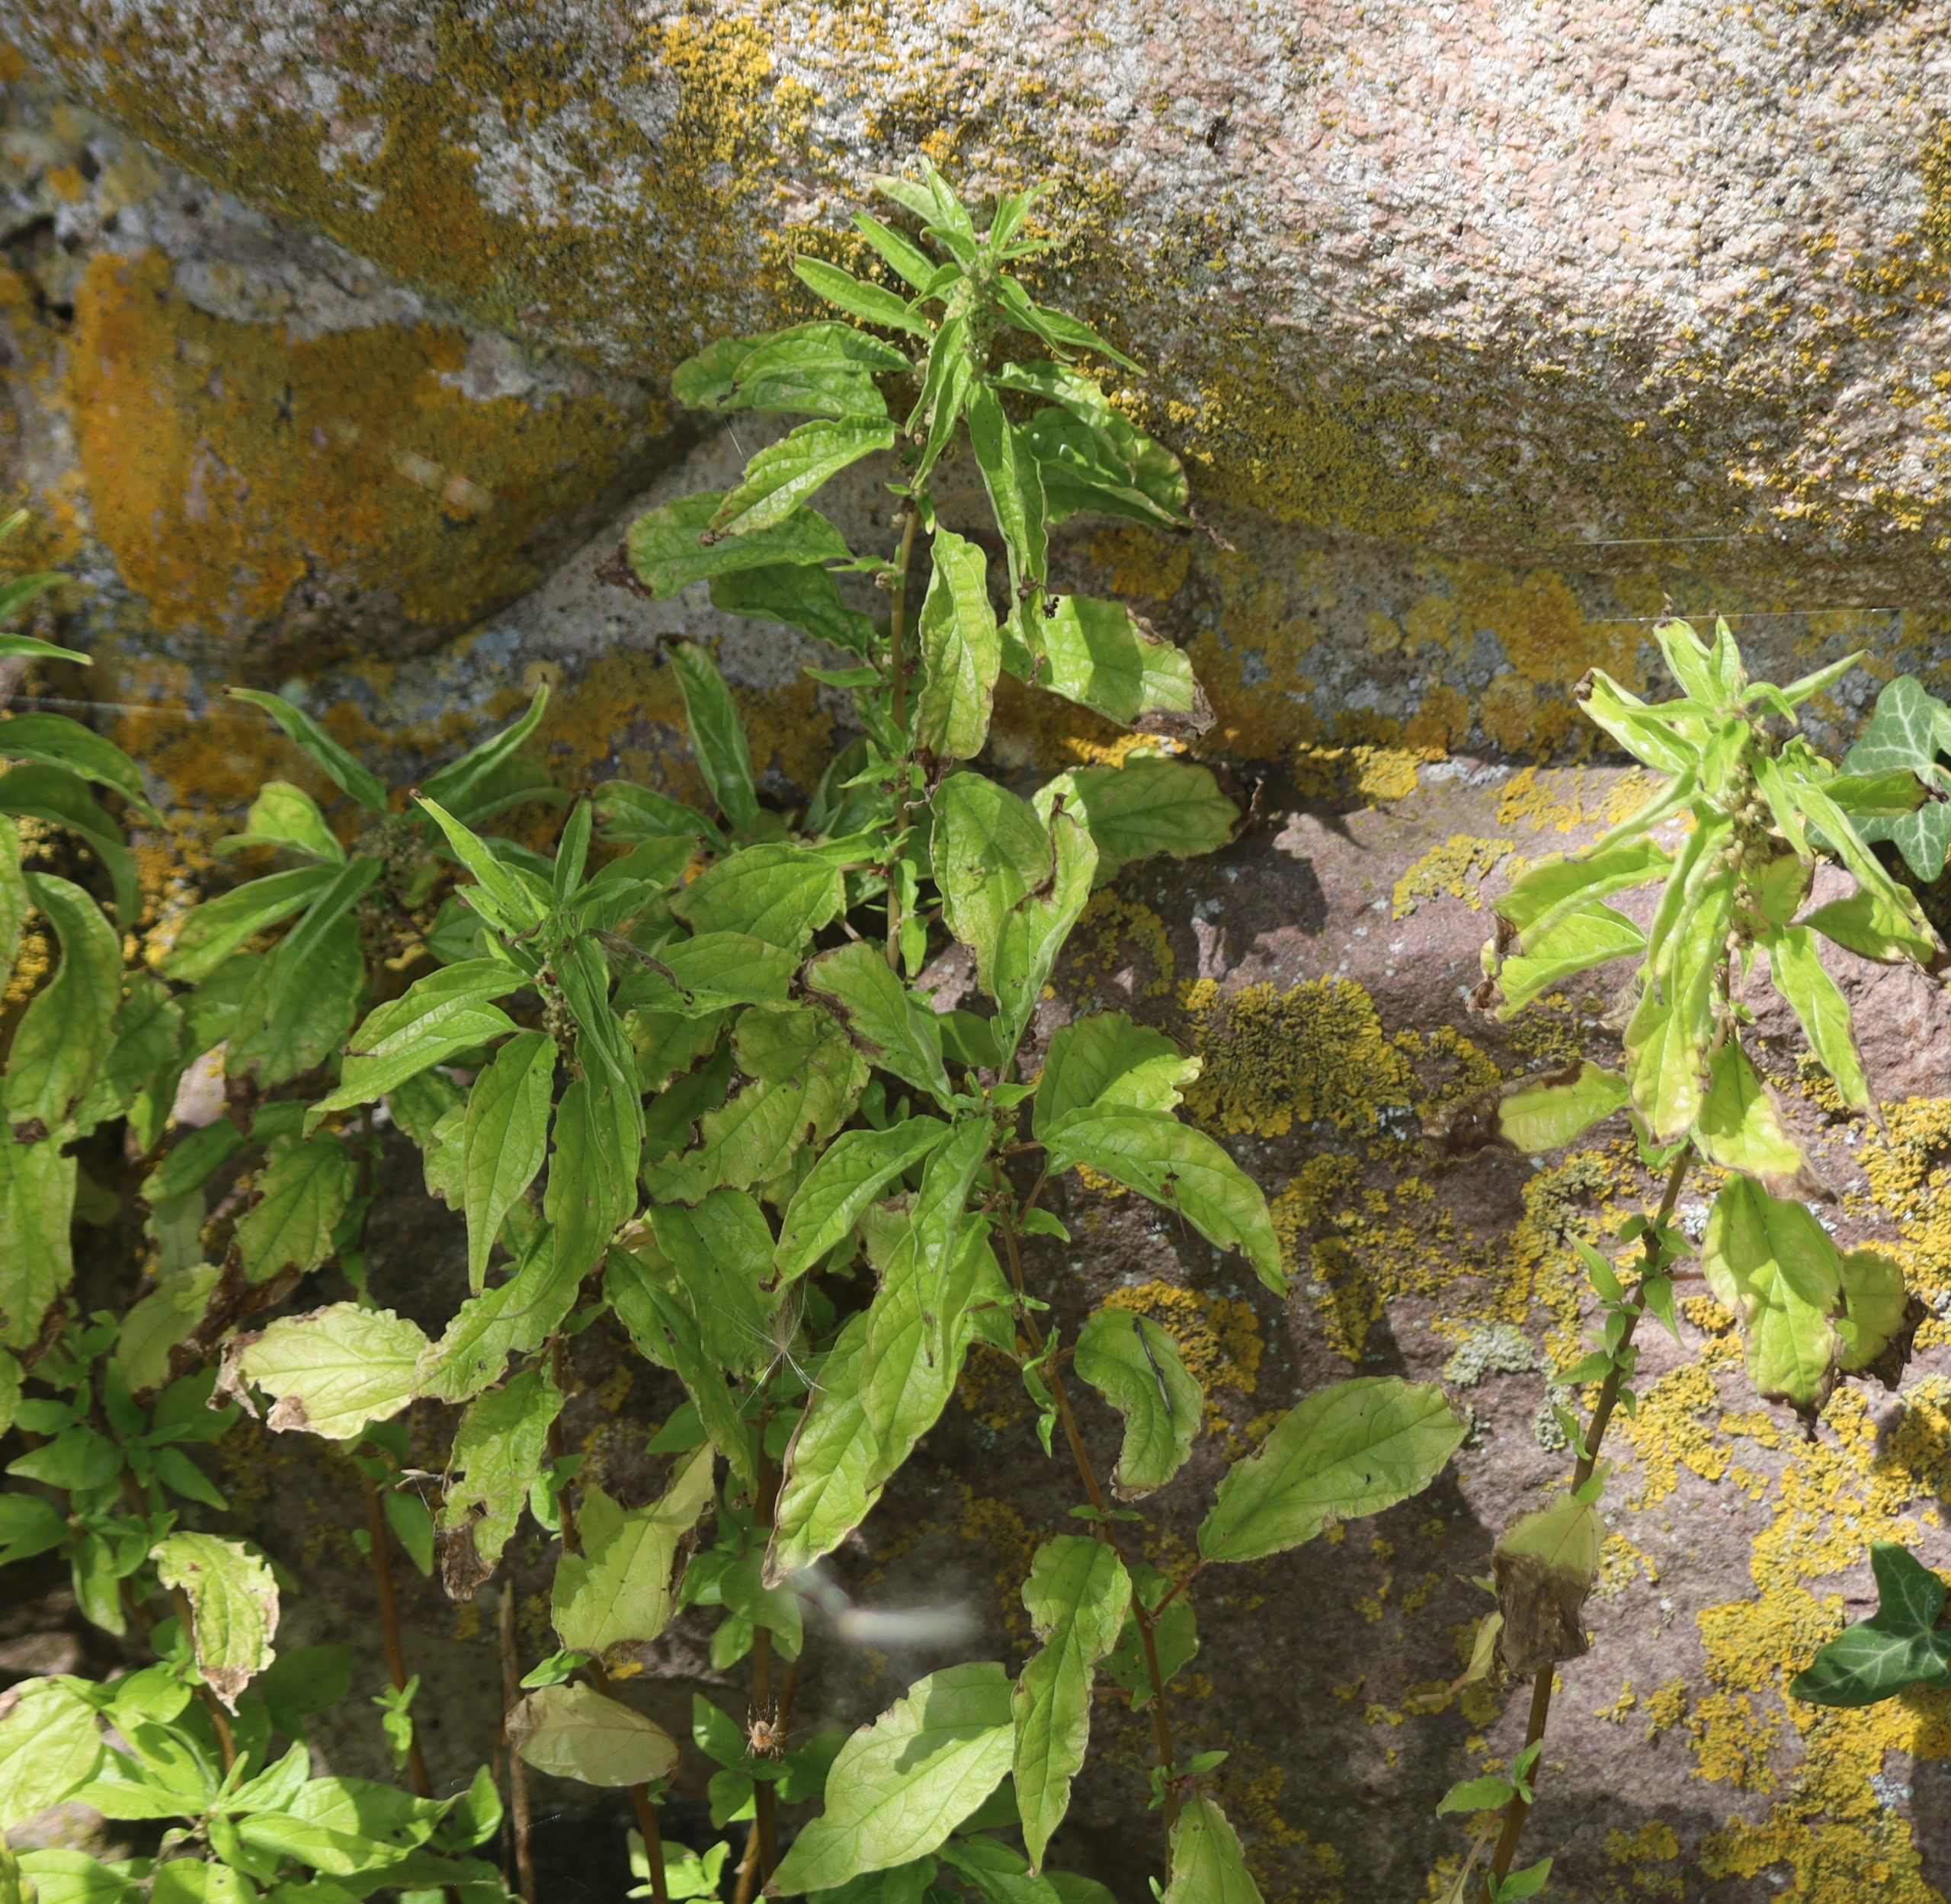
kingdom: Plantae
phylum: Tracheophyta
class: Magnoliopsida
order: Rosales
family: Urticaceae
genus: Parietaria
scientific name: Parietaria officinalis
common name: Almindelig springknap
